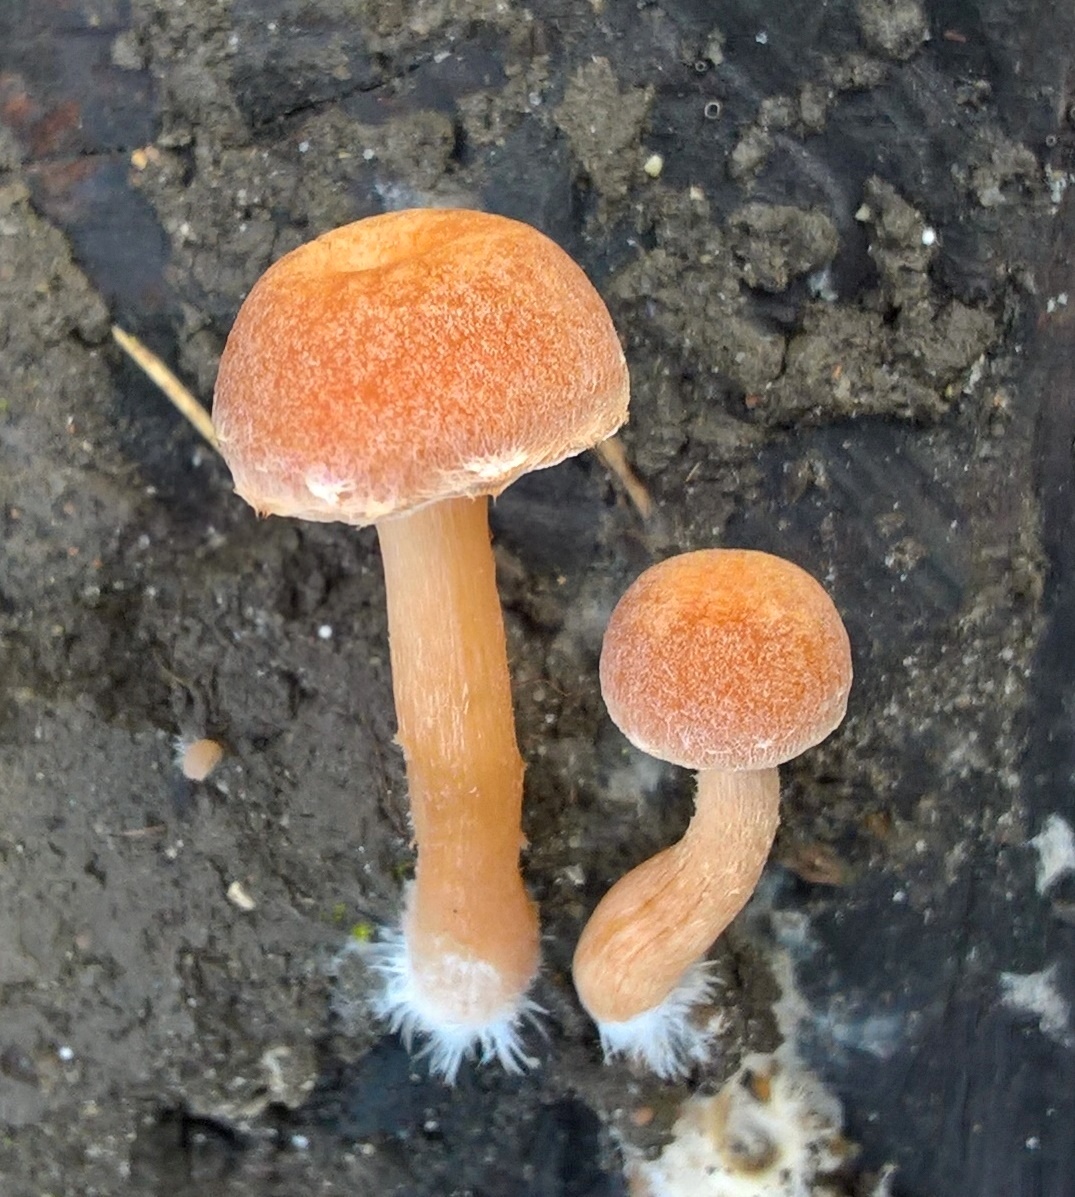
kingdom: Fungi
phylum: Basidiomycota
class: Agaricomycetes
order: Agaricales
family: Tubariaceae
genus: Tubaria
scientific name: Tubaria furfuracea
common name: kliddet fnughat
